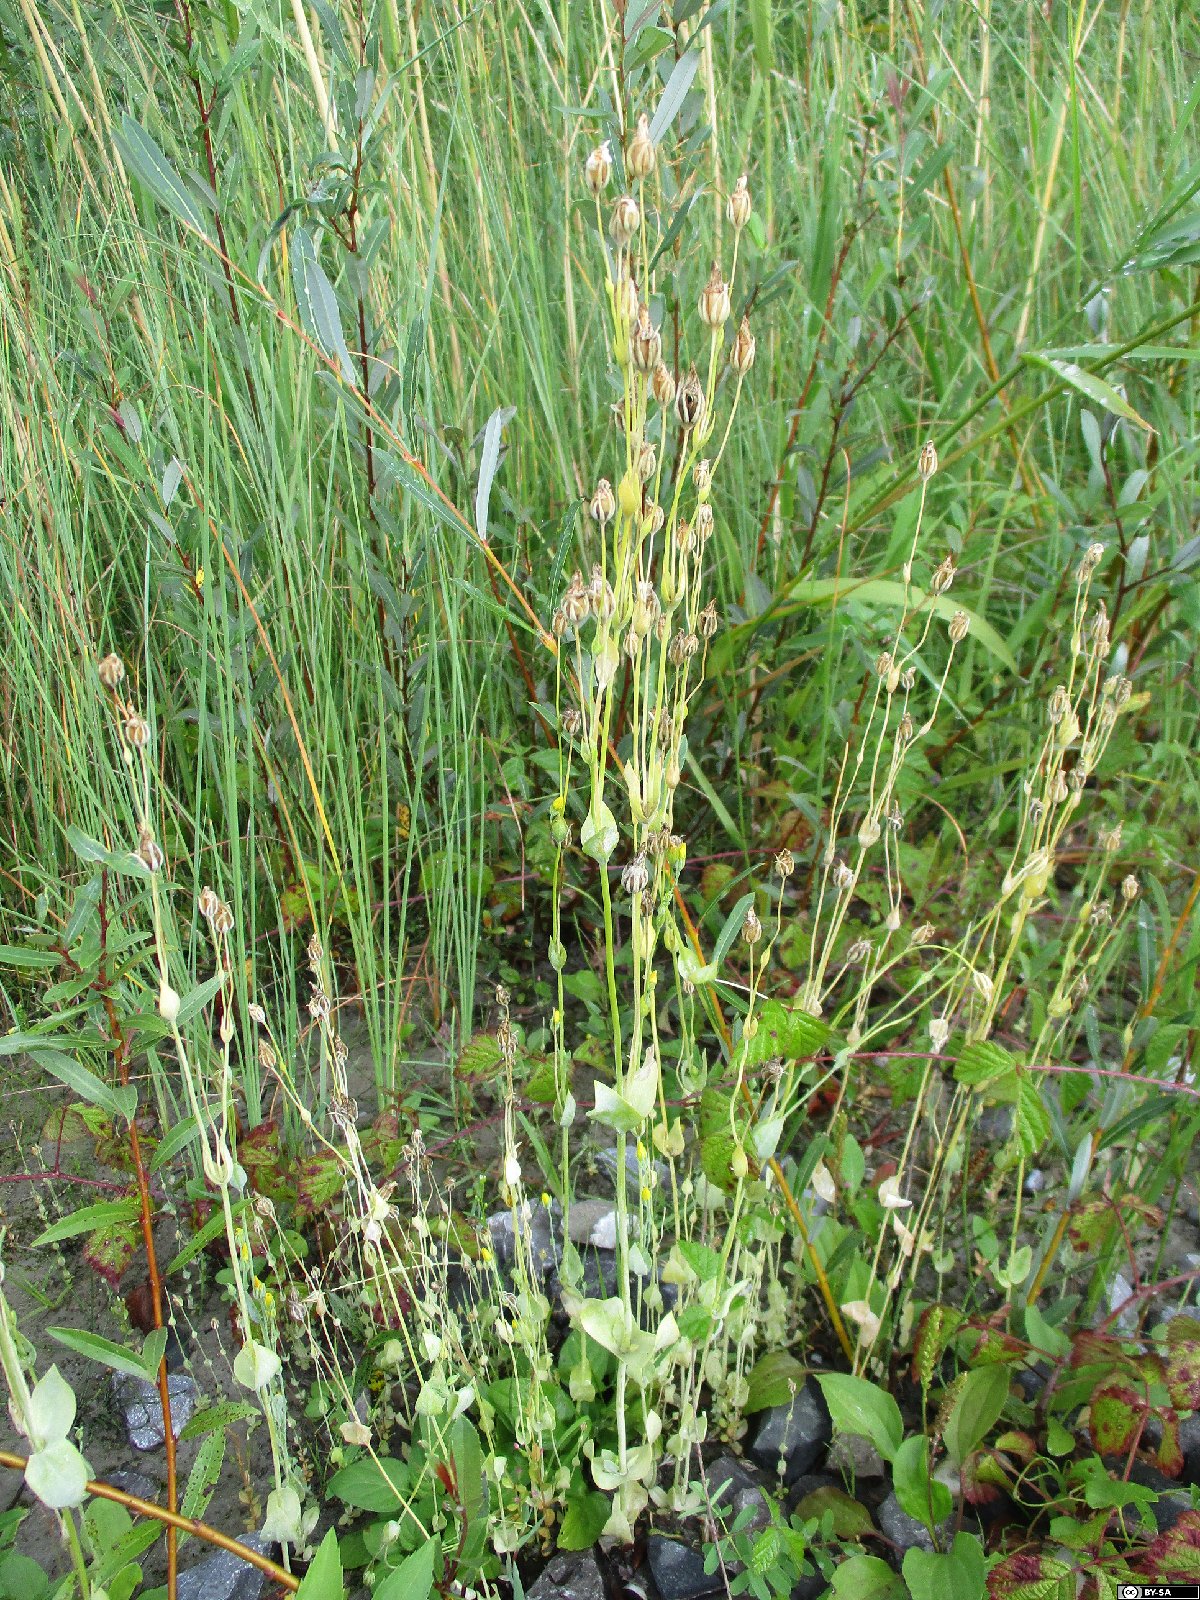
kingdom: Plantae
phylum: Tracheophyta
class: Magnoliopsida
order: Gentianales
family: Gentianaceae
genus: Blackstonia
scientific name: Blackstonia acuminata
